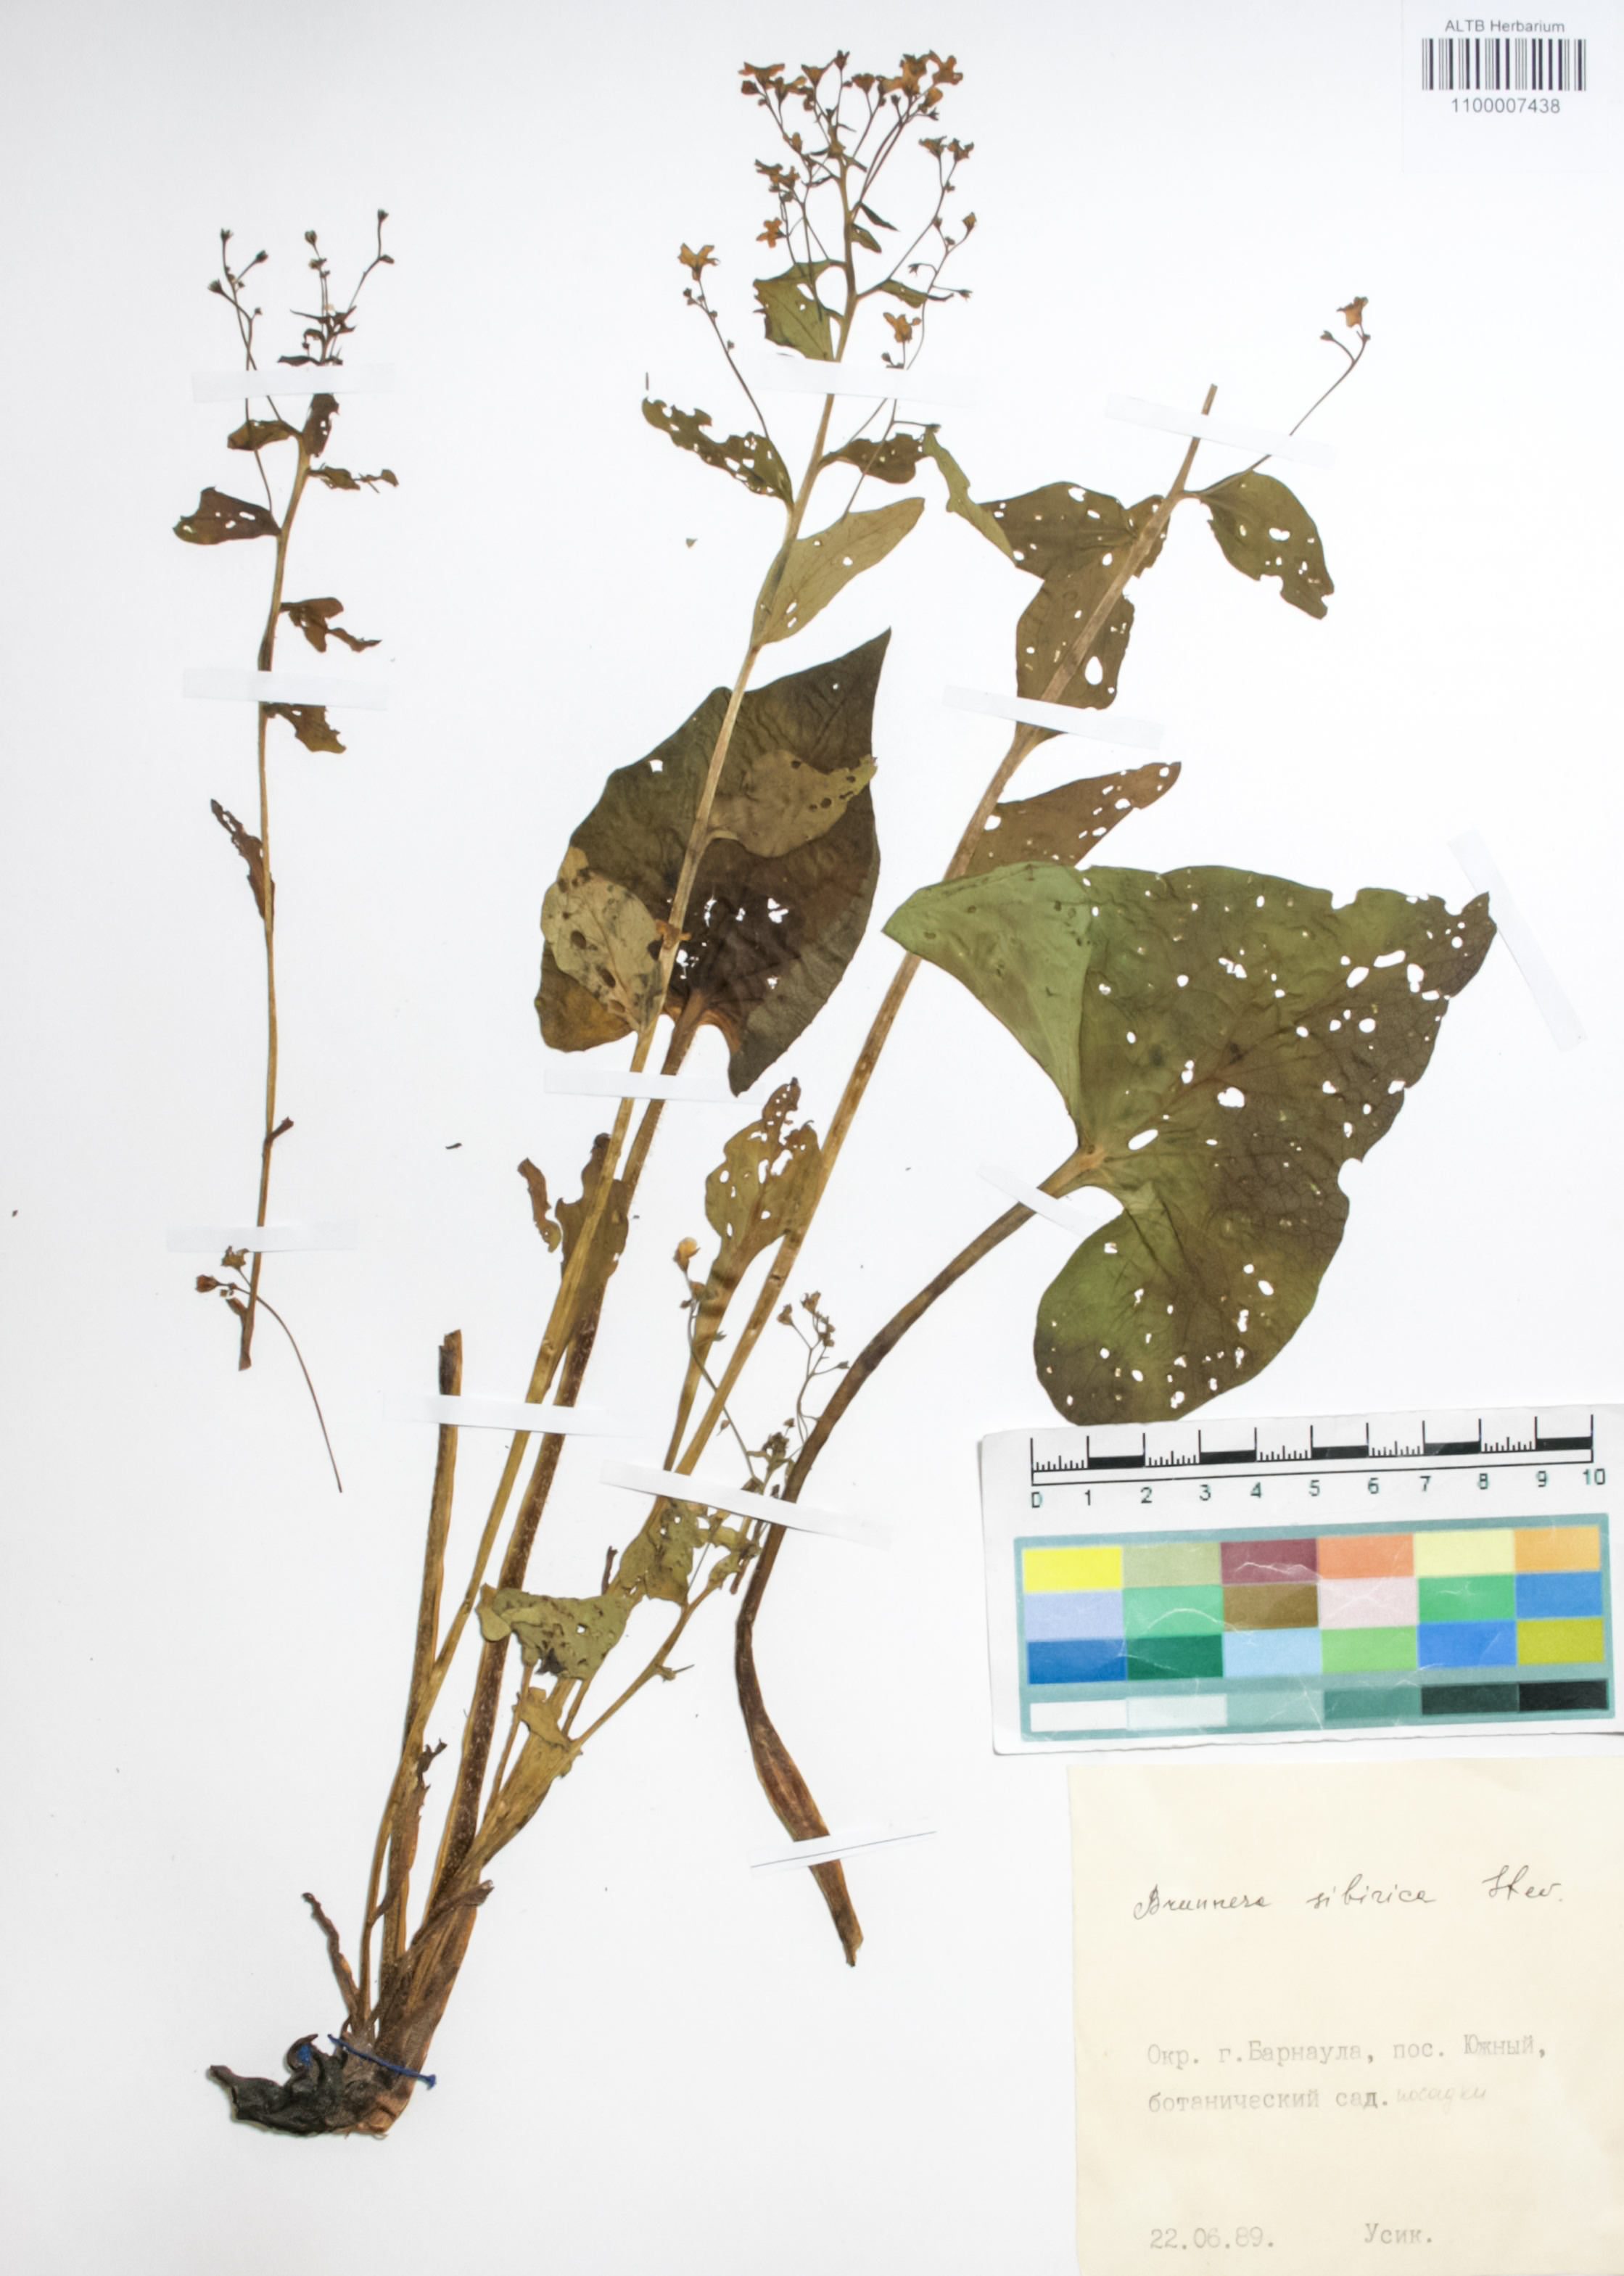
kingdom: Plantae
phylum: Tracheophyta
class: Magnoliopsida
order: Boraginales
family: Boraginaceae
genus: Brunnera
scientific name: Brunnera sibirica
